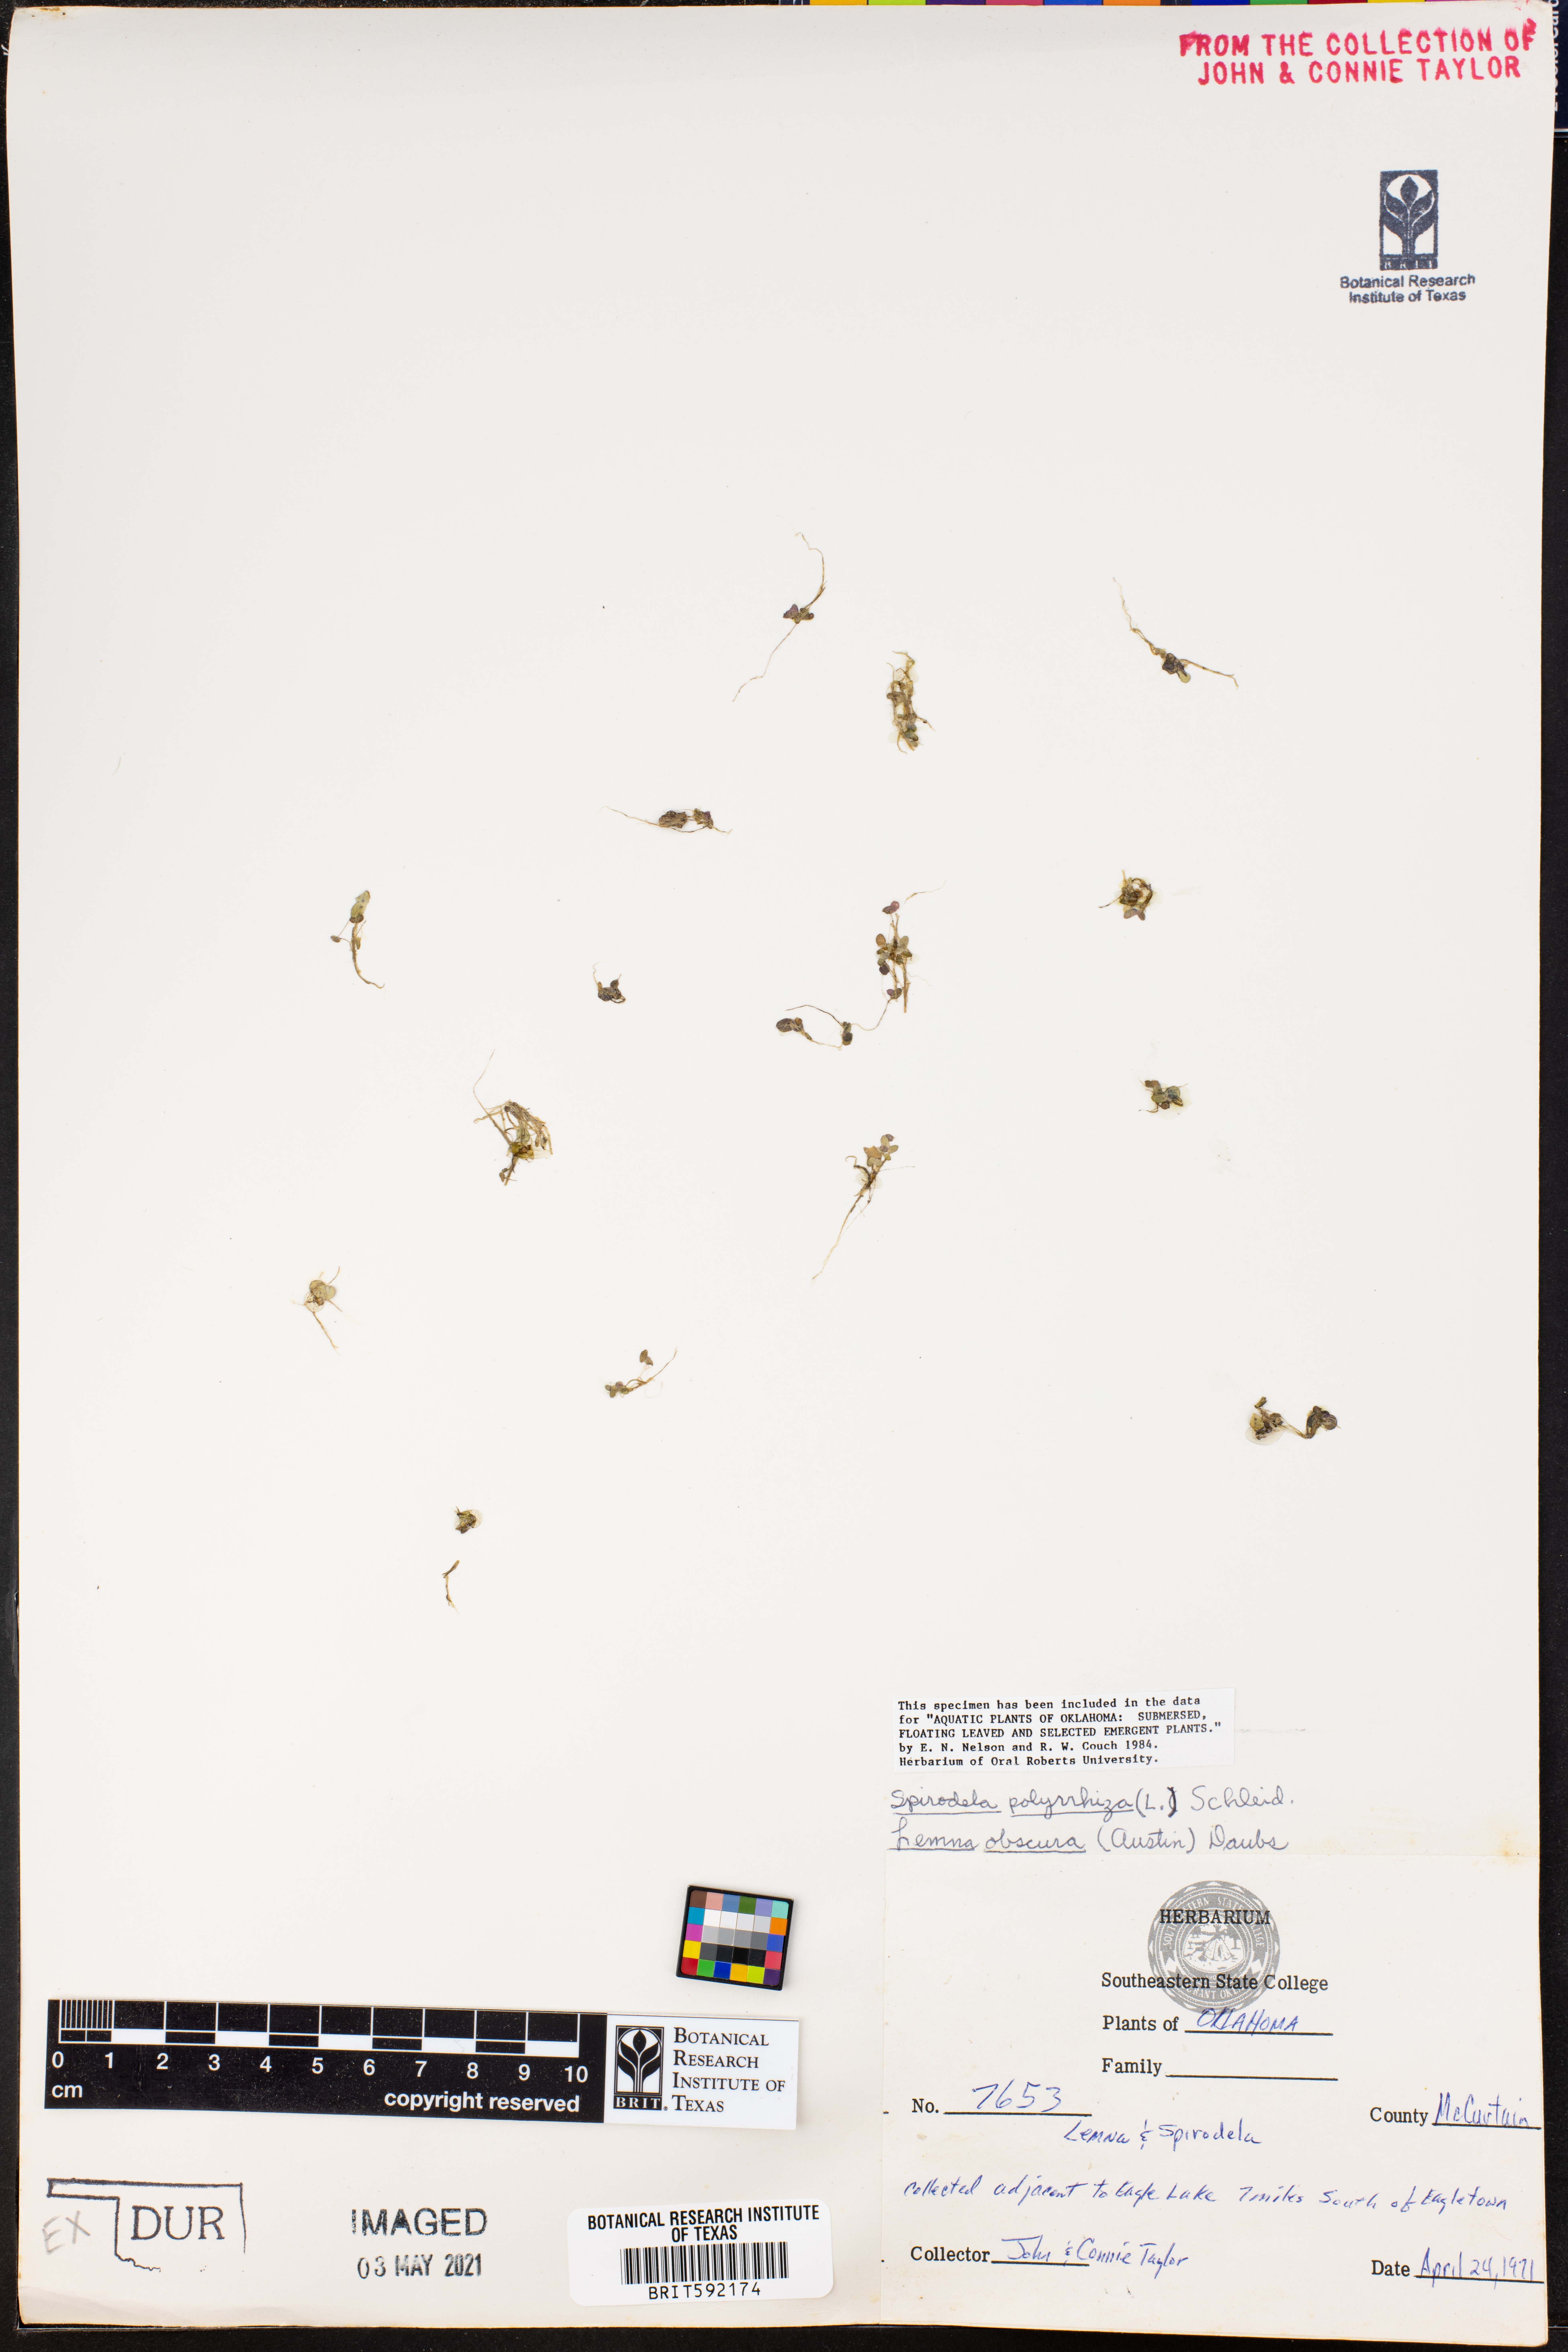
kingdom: Plantae
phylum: Tracheophyta
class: Liliopsida
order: Alismatales
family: Araceae
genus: Lemna
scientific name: Lemna obscura
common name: Little duckweed
